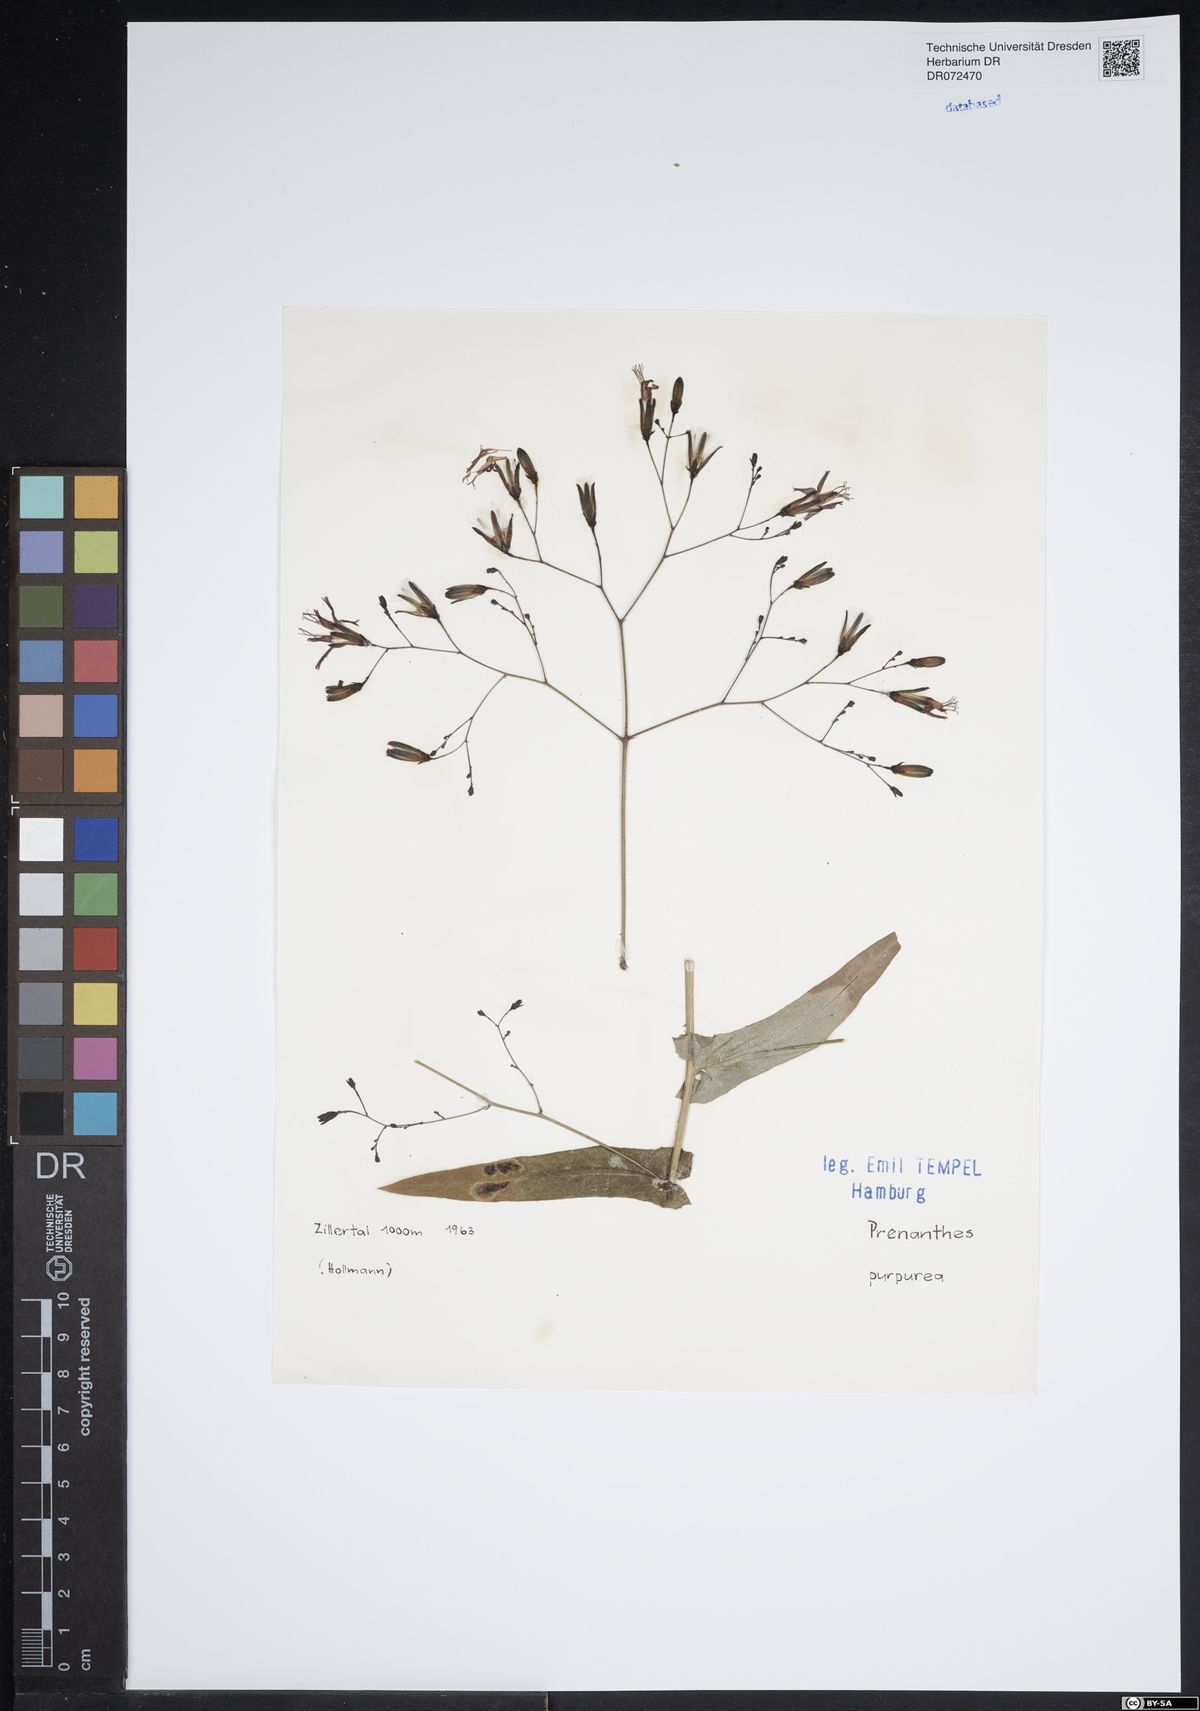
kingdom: Plantae
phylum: Tracheophyta
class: Magnoliopsida
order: Asterales
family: Asteraceae
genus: Prenanthes
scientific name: Prenanthes purpurea
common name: Purple lettuce
